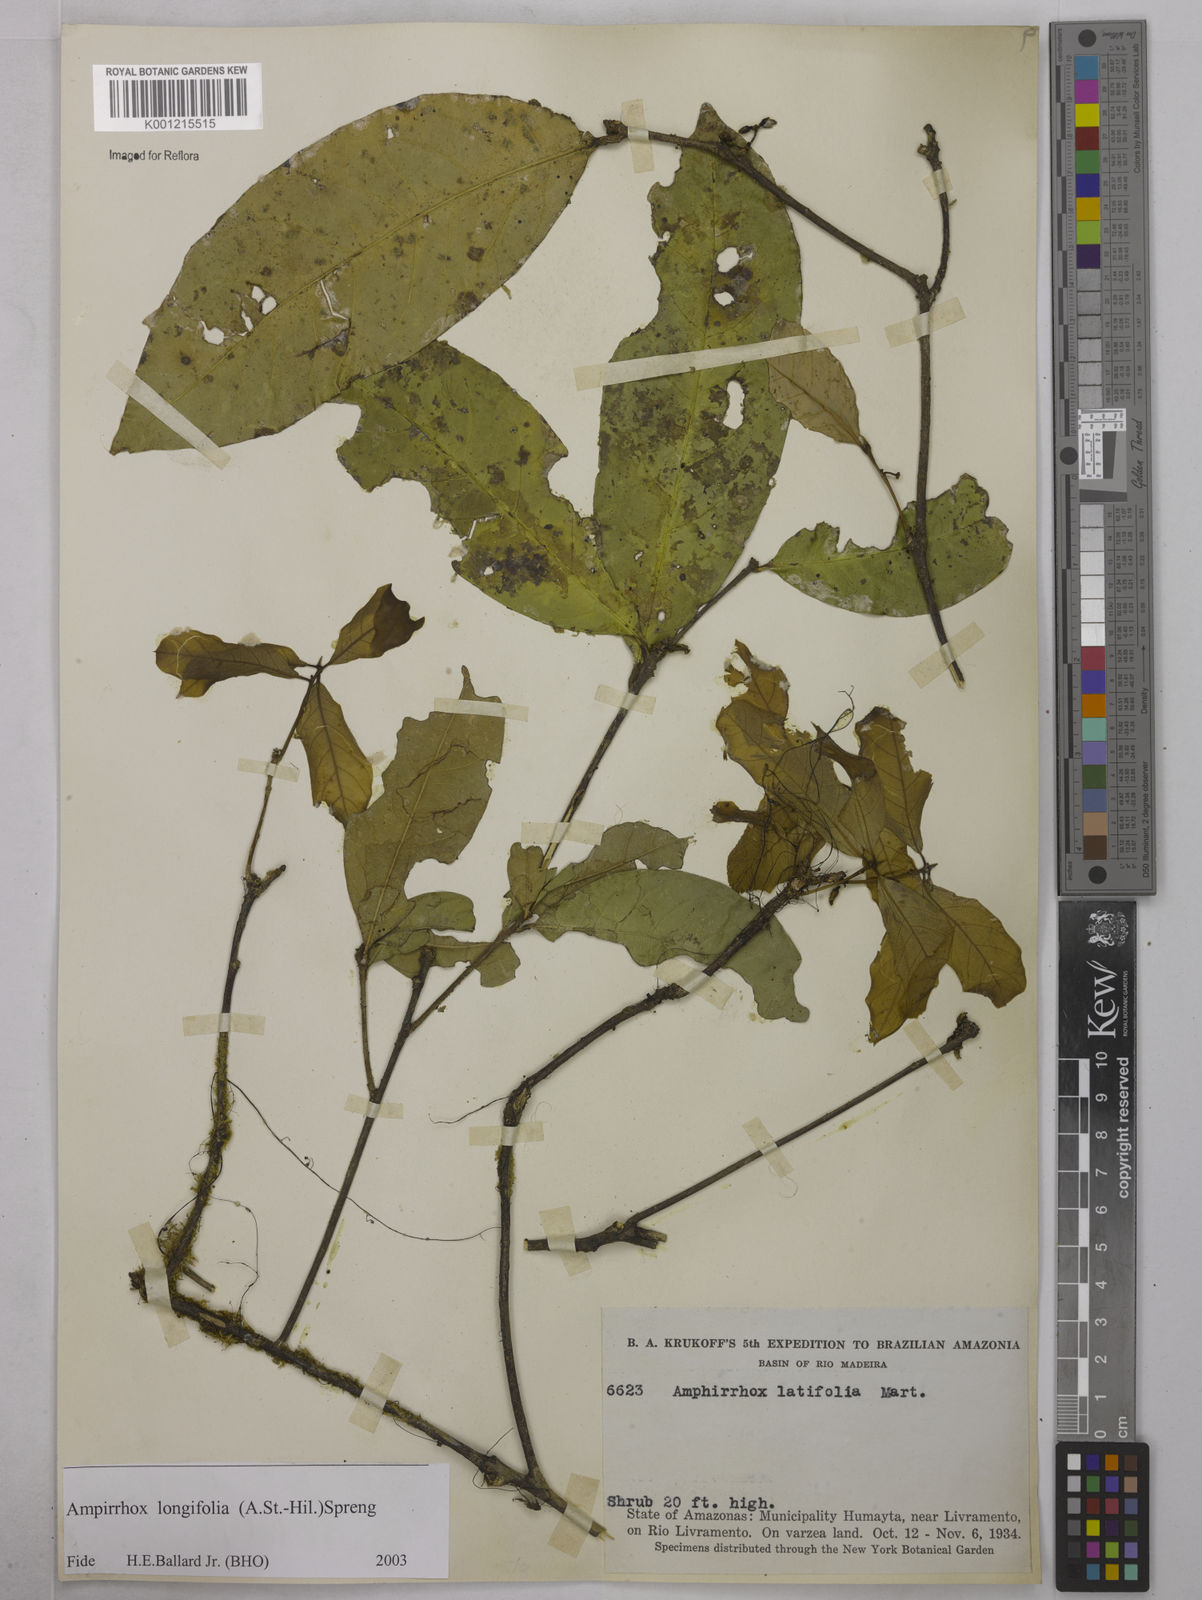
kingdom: Plantae
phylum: Tracheophyta
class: Magnoliopsida
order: Malpighiales
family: Violaceae
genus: Amphirrhox
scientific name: Amphirrhox longifolia
